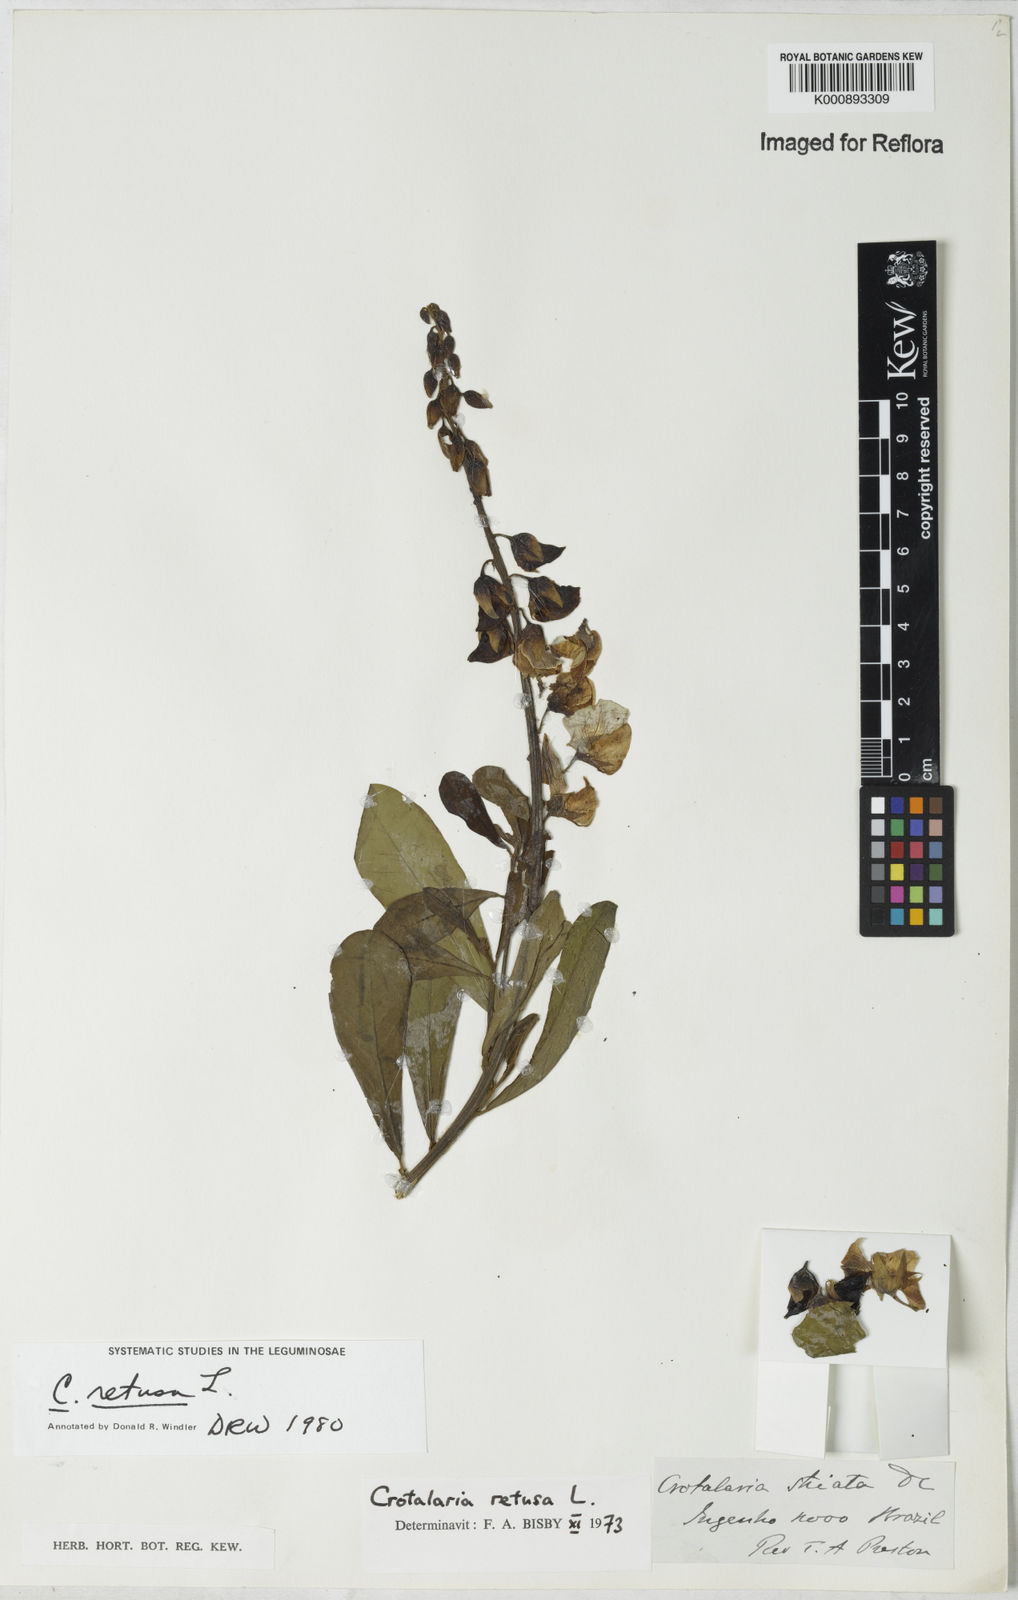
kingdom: Plantae
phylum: Tracheophyta
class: Magnoliopsida
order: Fabales
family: Fabaceae
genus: Crotalaria
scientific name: Crotalaria retusa
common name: Rattleweed
